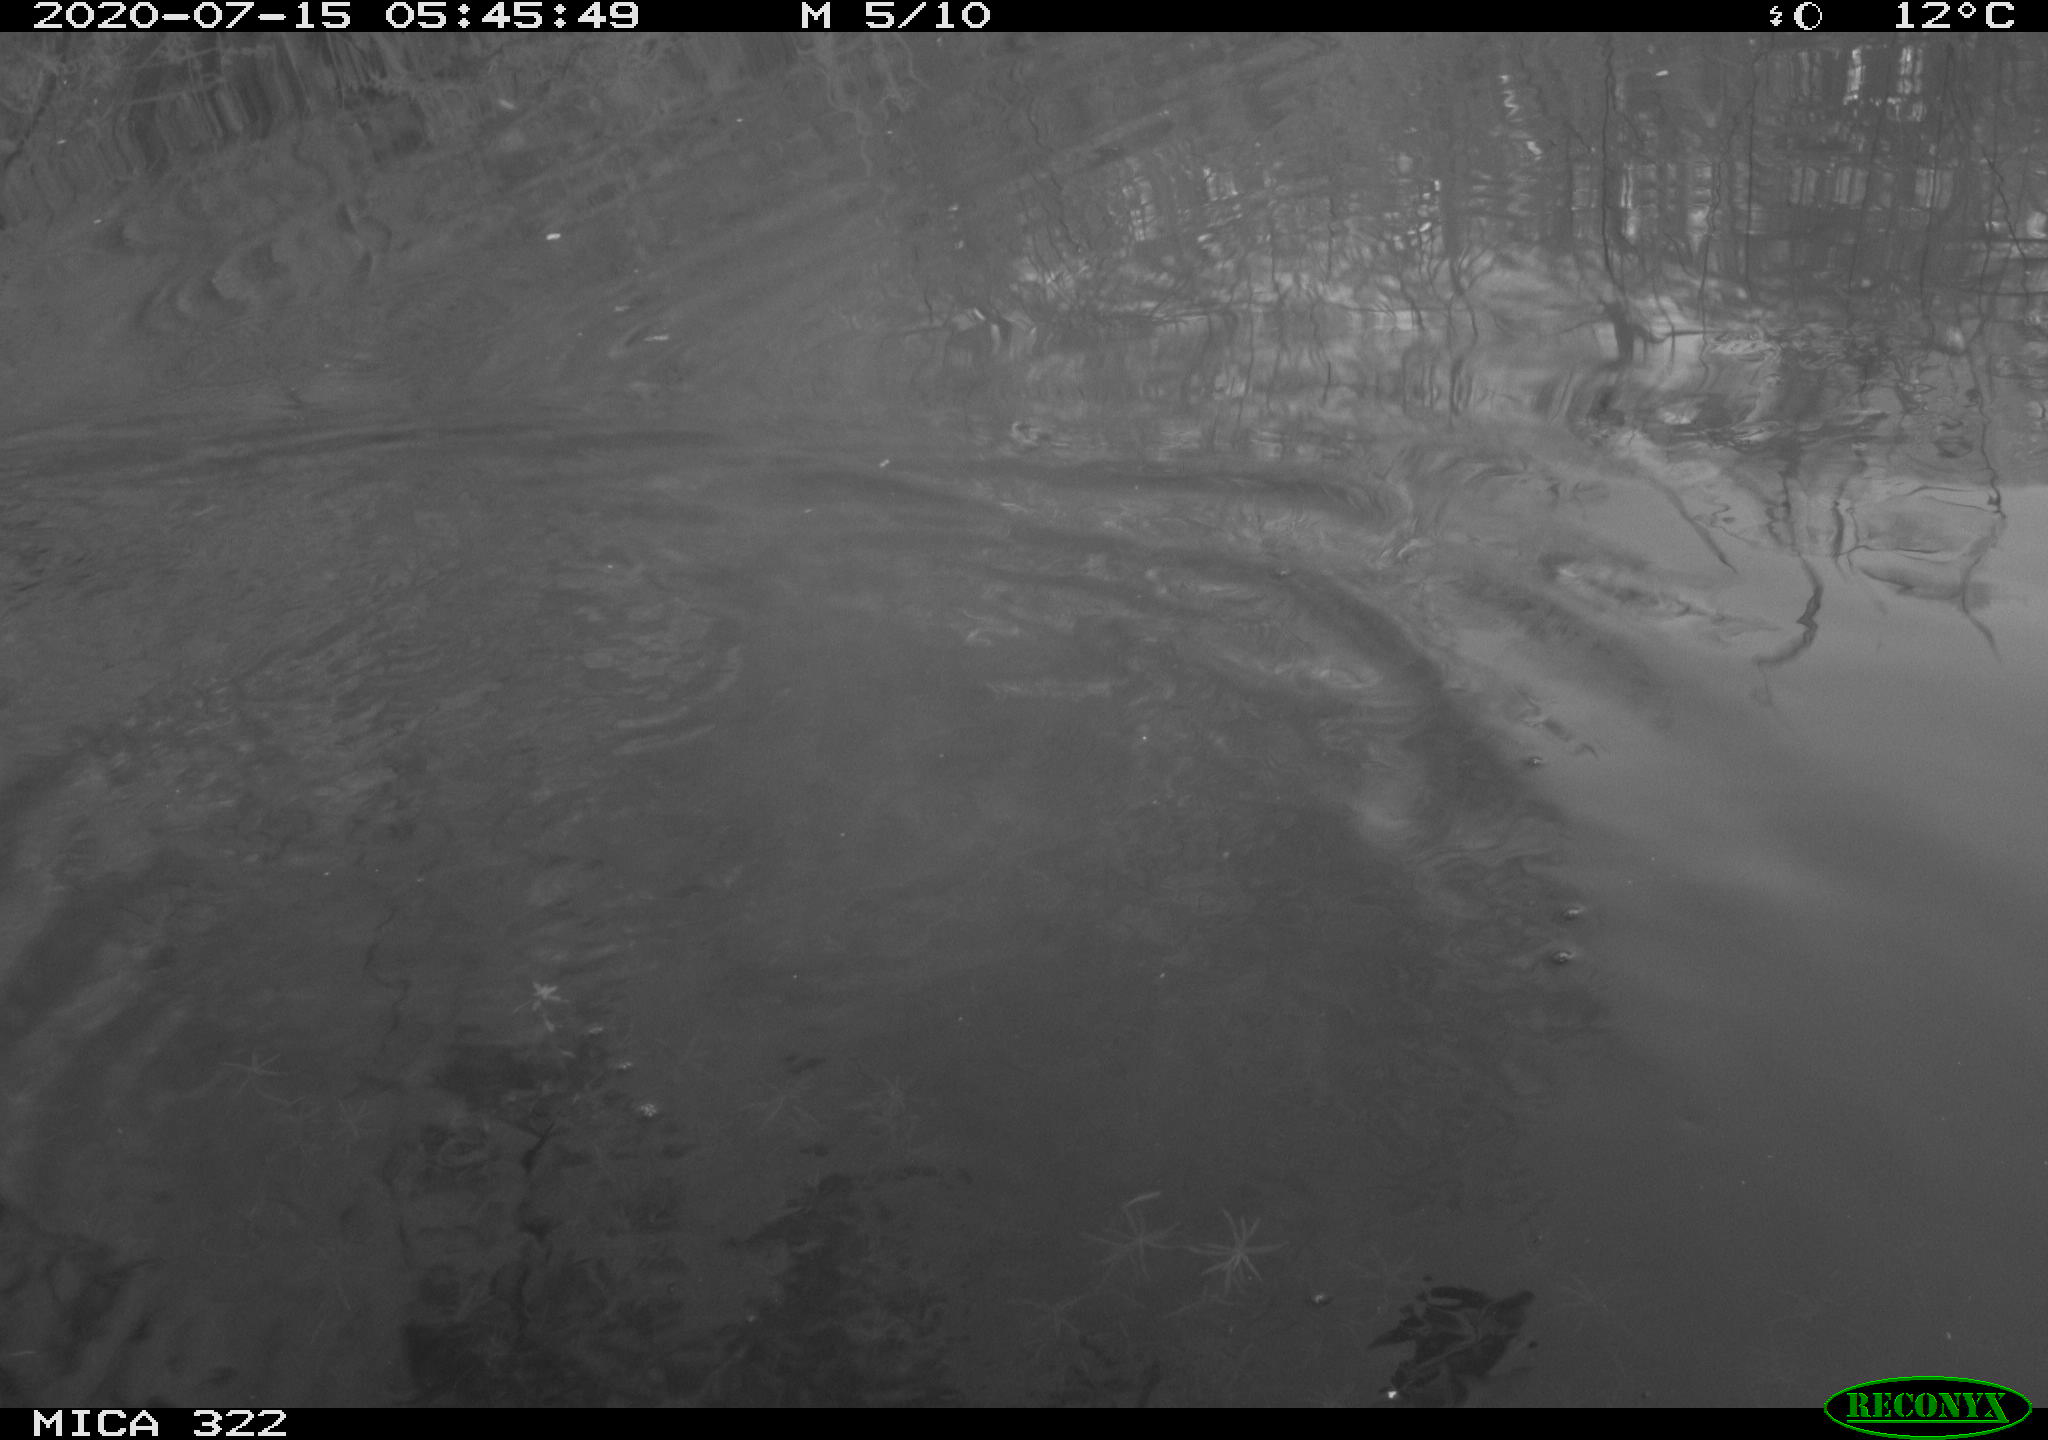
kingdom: Animalia
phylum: Chordata
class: Aves
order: Podicipediformes
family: Podicipedidae
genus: Podiceps
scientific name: Podiceps cristatus
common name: Great crested grebe
